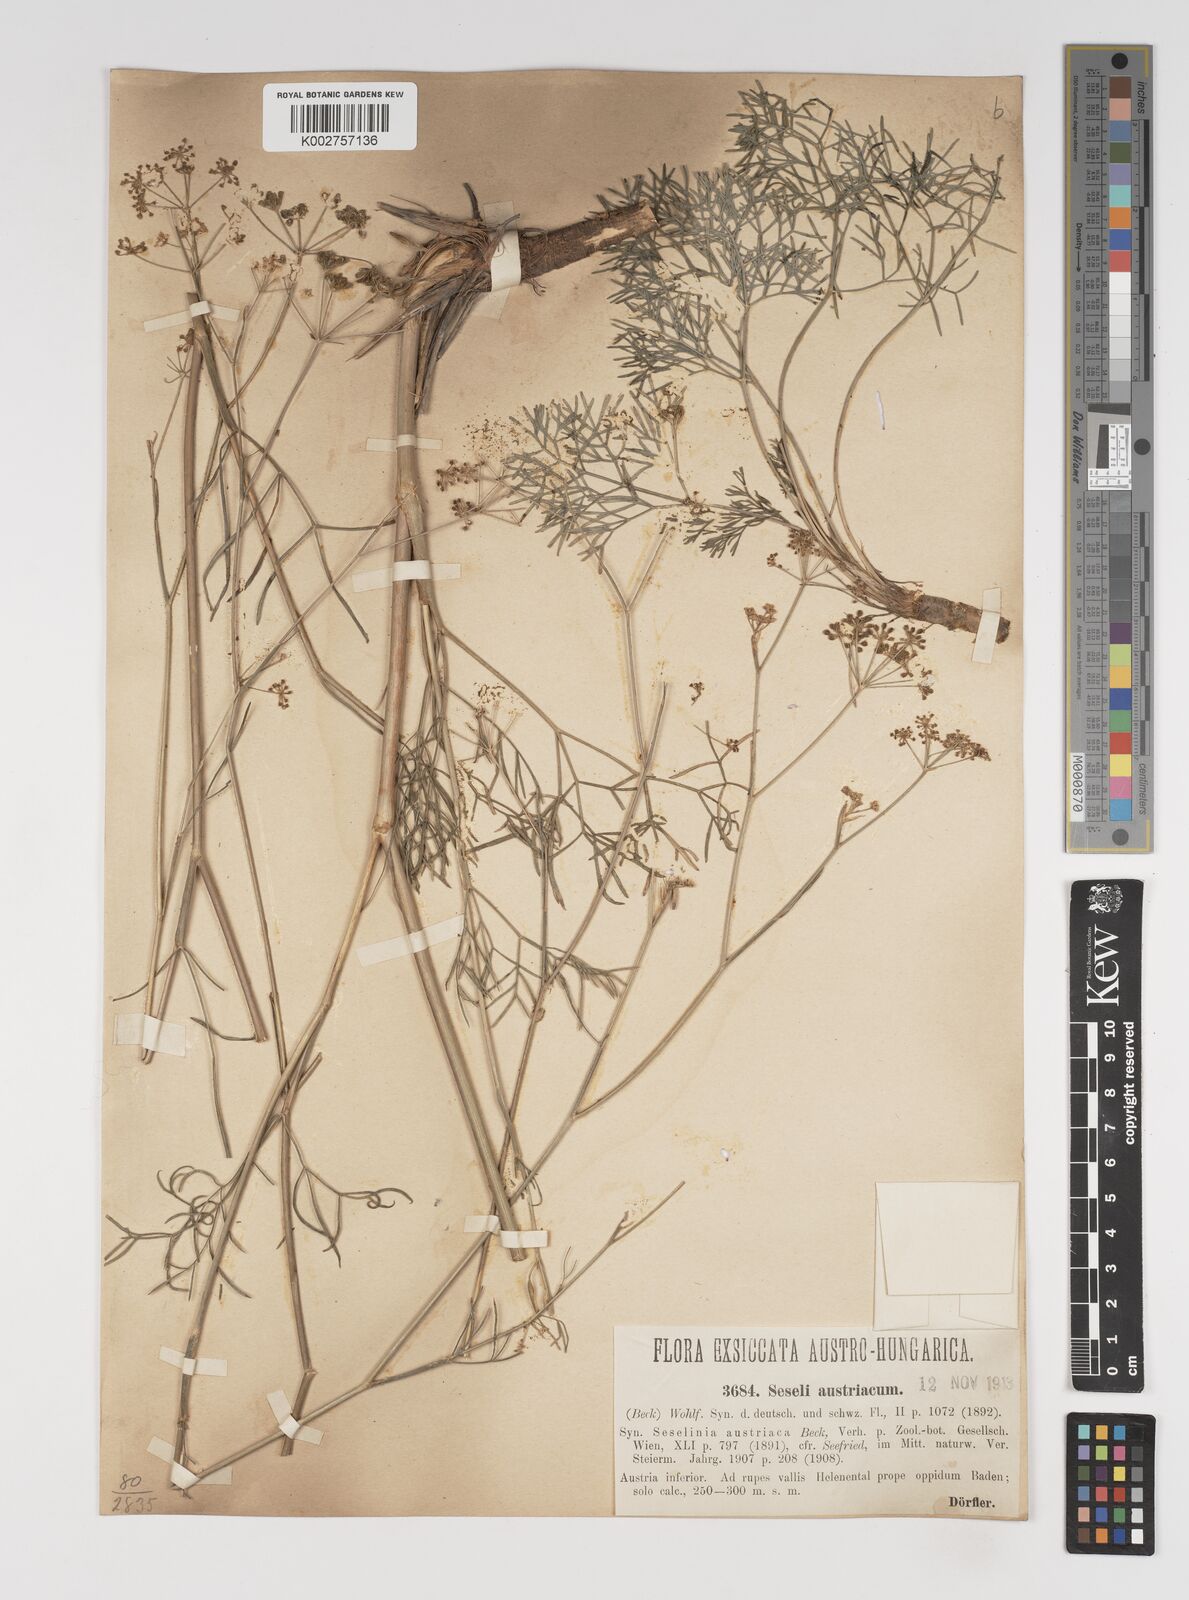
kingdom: Plantae
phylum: Tracheophyta
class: Magnoliopsida
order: Apiales
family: Apiaceae
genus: Seseli
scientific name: Seseli austriacum
